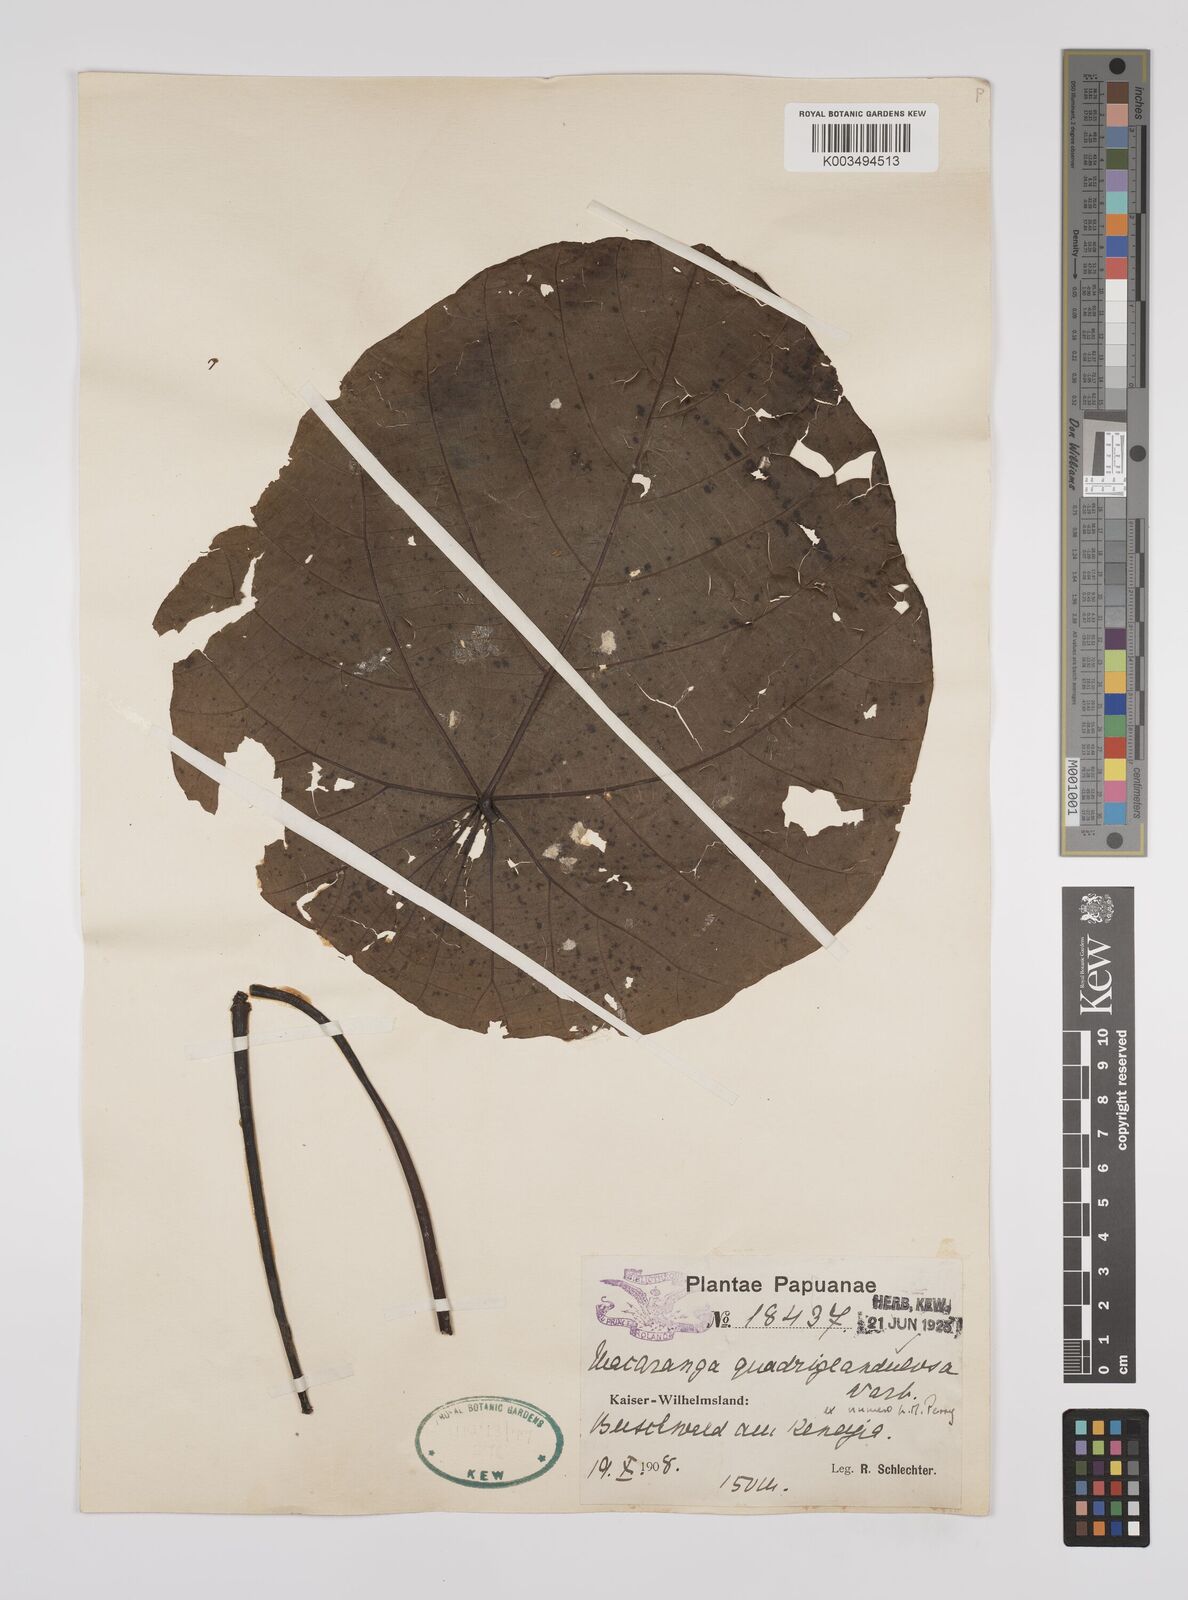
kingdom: Plantae
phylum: Tracheophyta
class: Magnoliopsida
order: Malpighiales
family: Euphorbiaceae
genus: Macaranga
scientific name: Macaranga quadriglandulosa
